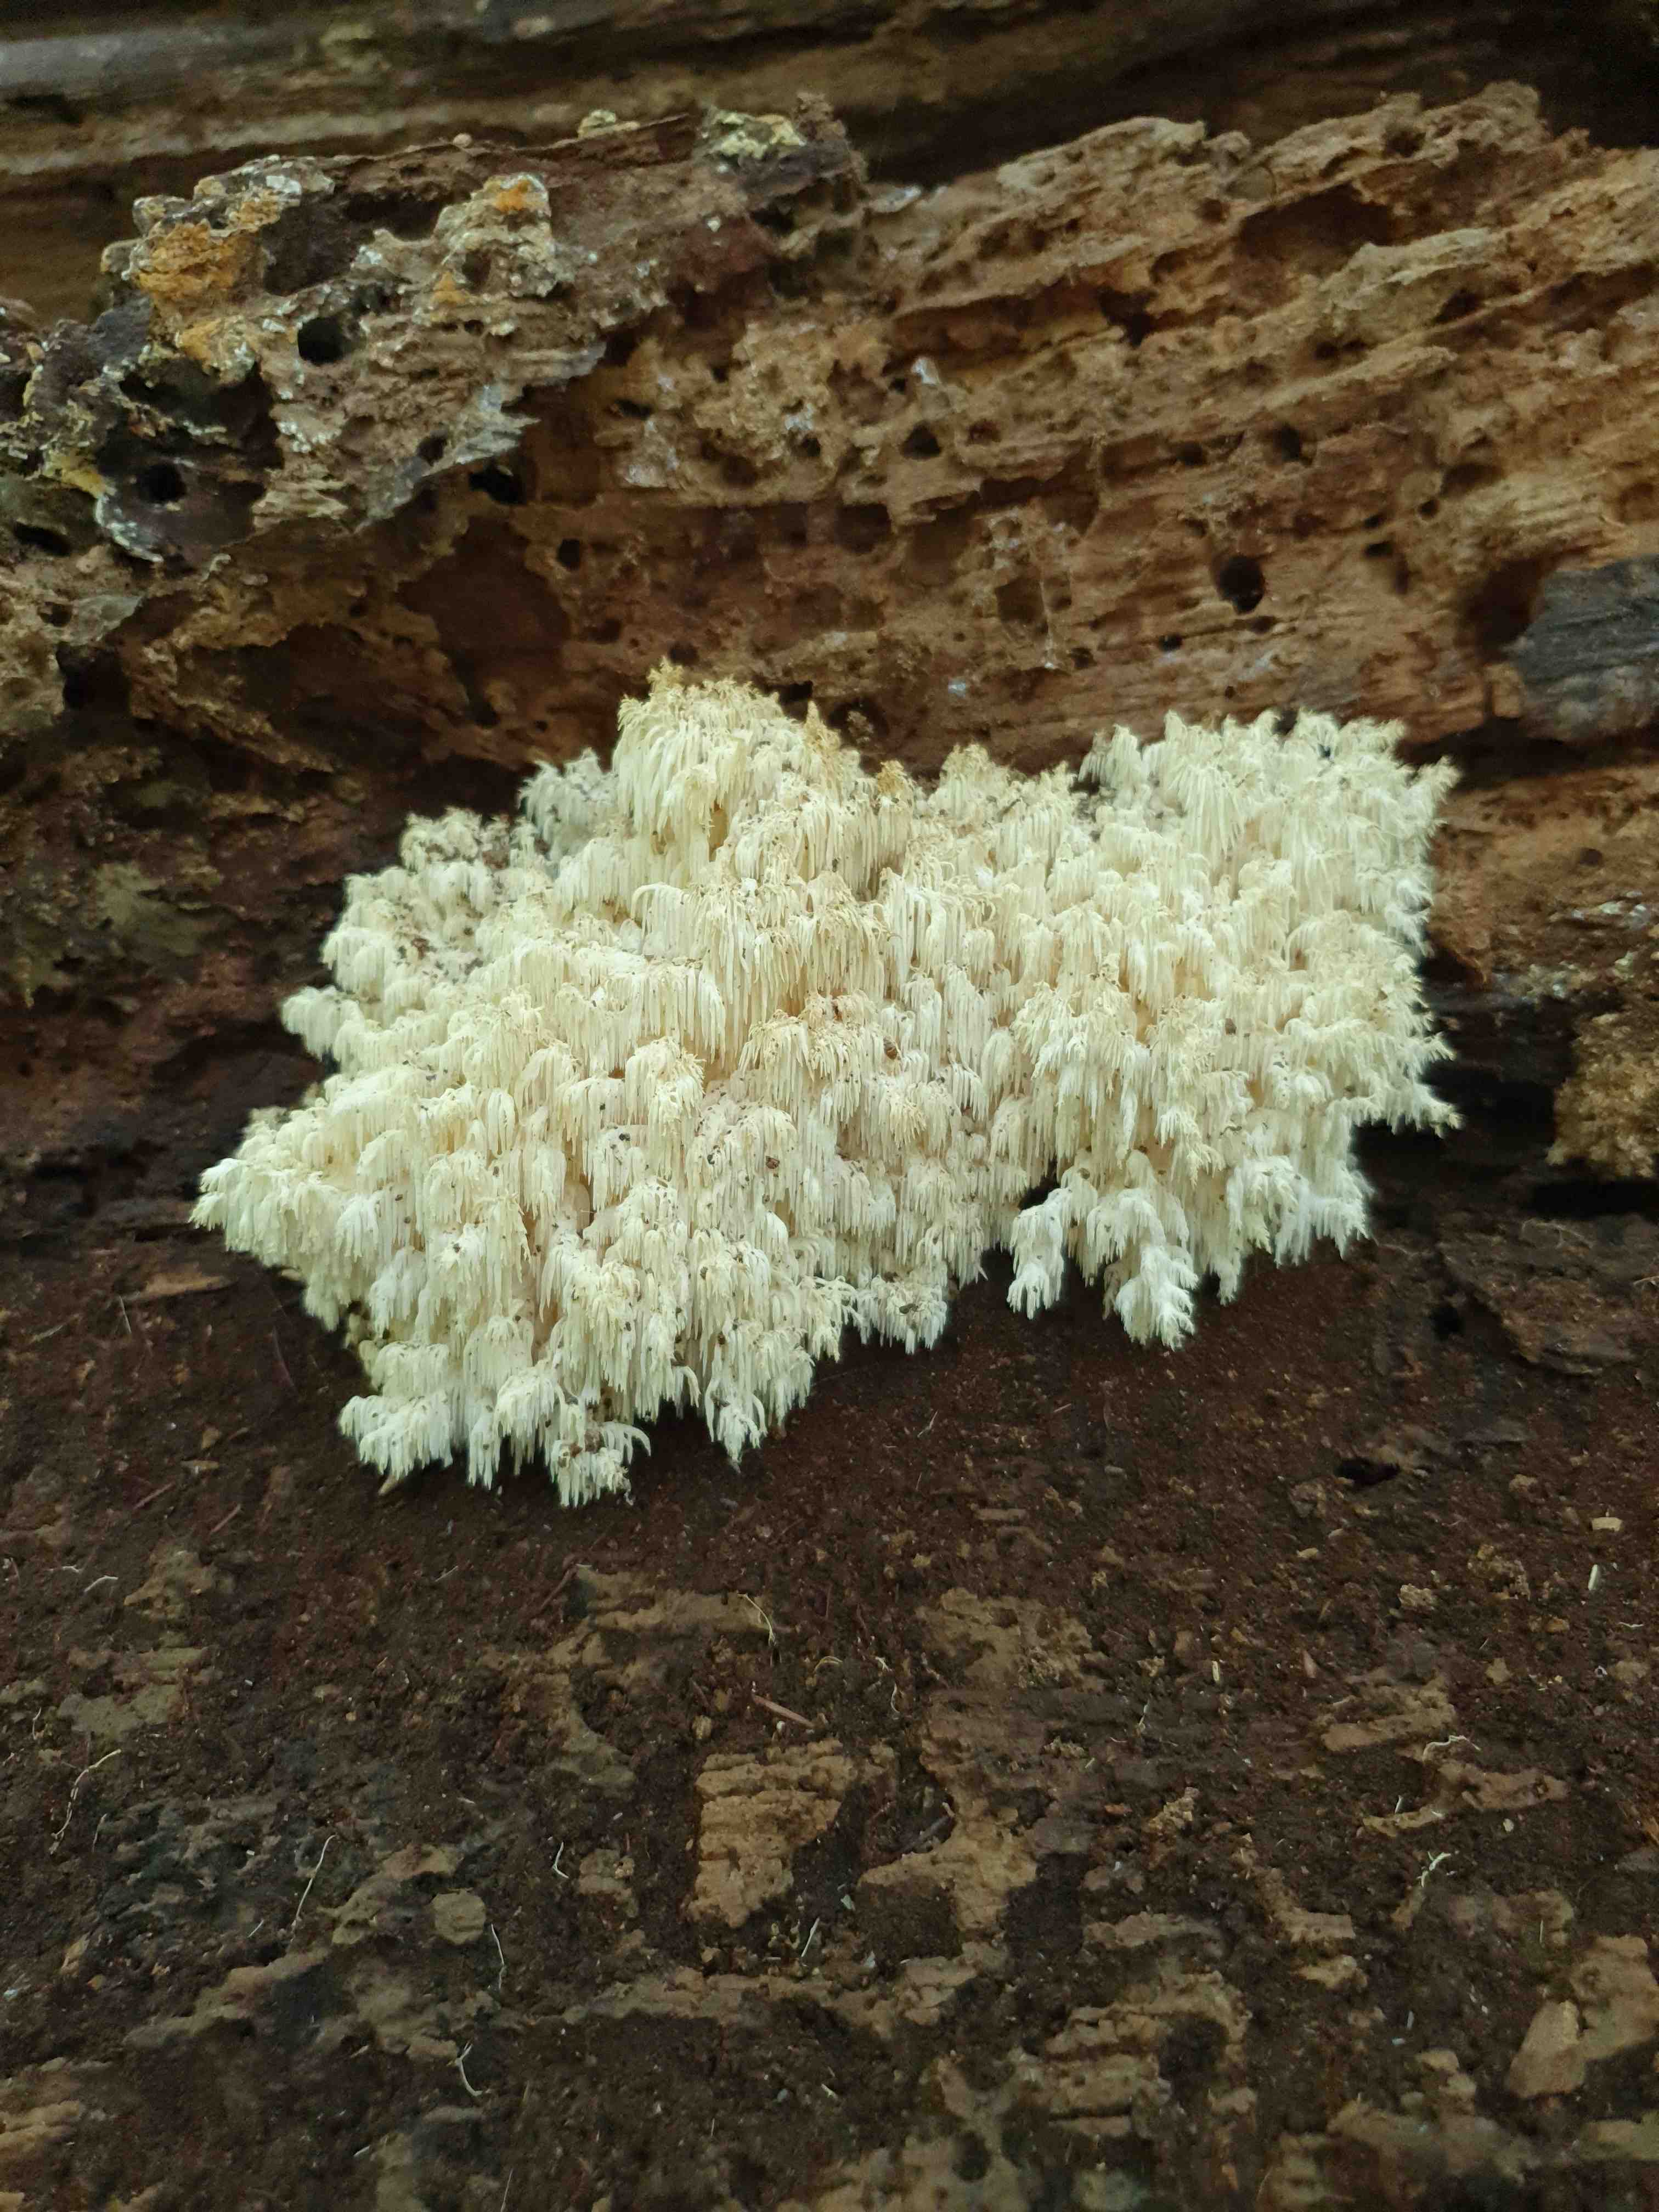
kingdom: Fungi
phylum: Basidiomycota
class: Agaricomycetes
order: Russulales
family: Hericiaceae
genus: Hericium
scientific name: Hericium coralloides
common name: koralpigsvamp
